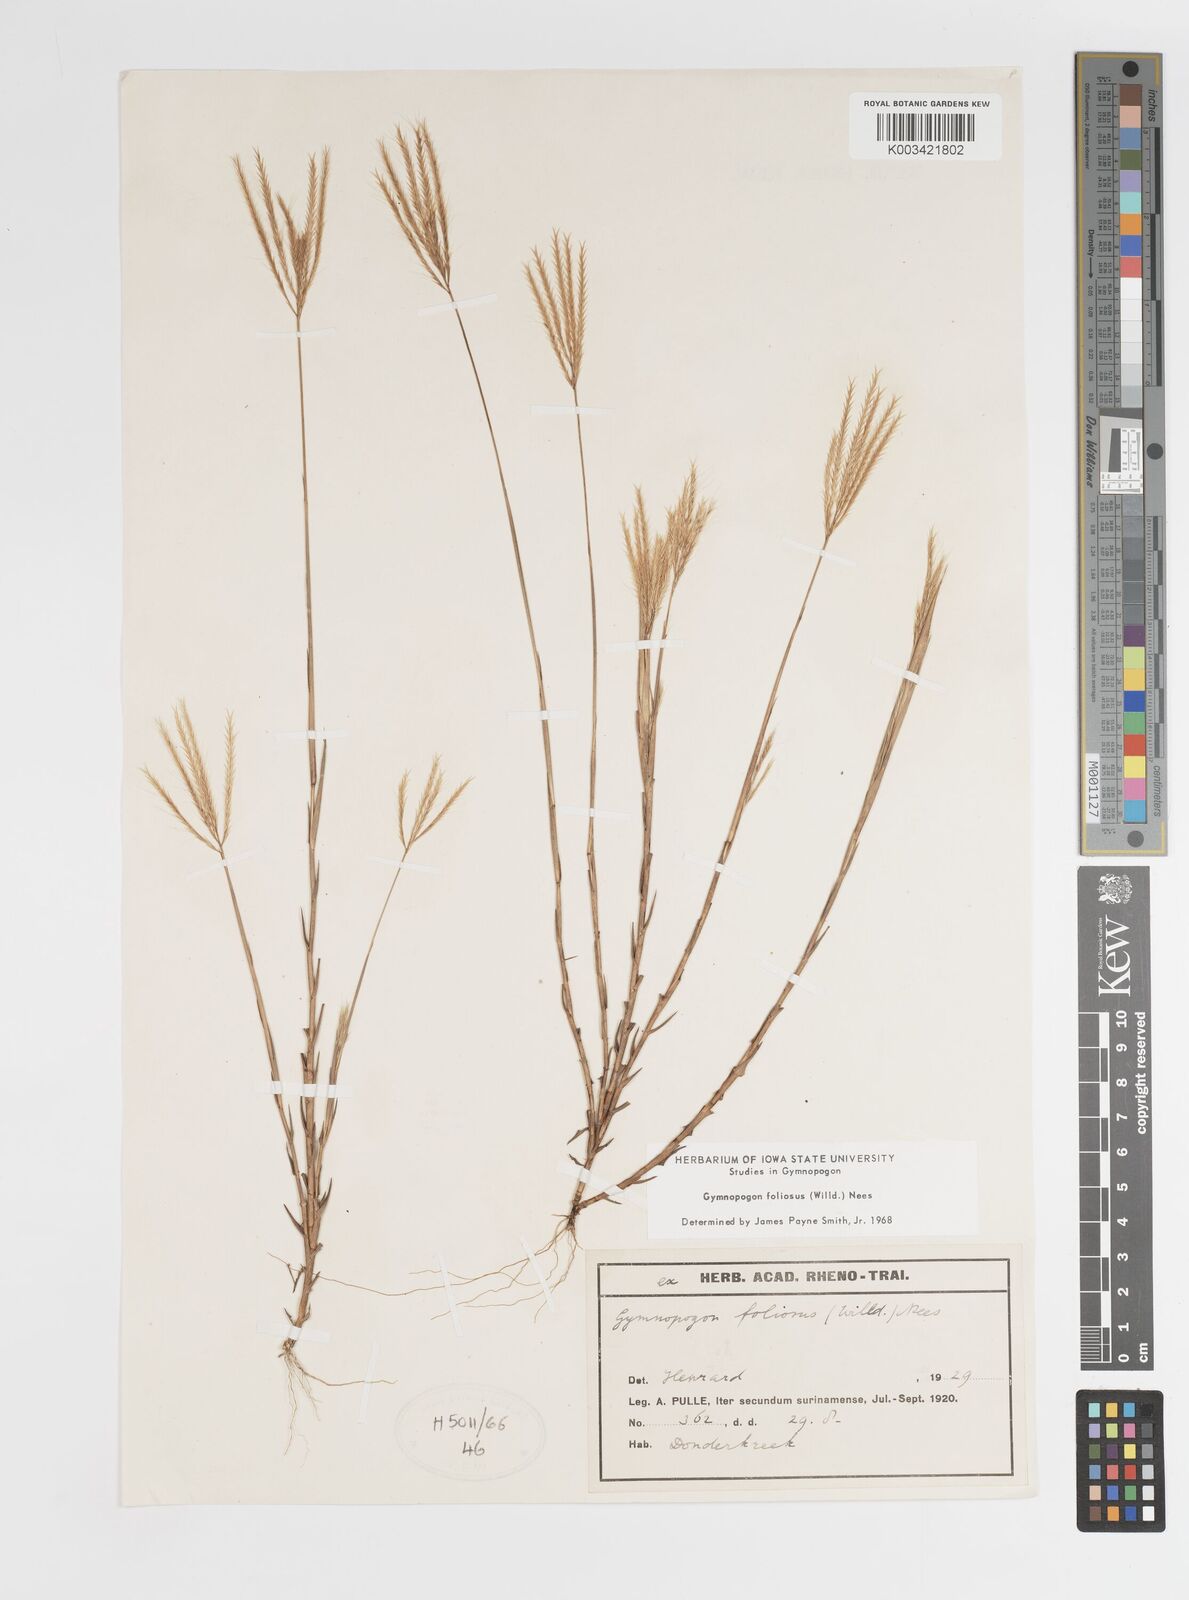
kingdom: Plantae
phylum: Tracheophyta
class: Liliopsida
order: Poales
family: Poaceae
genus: Gymnopogon
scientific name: Gymnopogon foliosus
